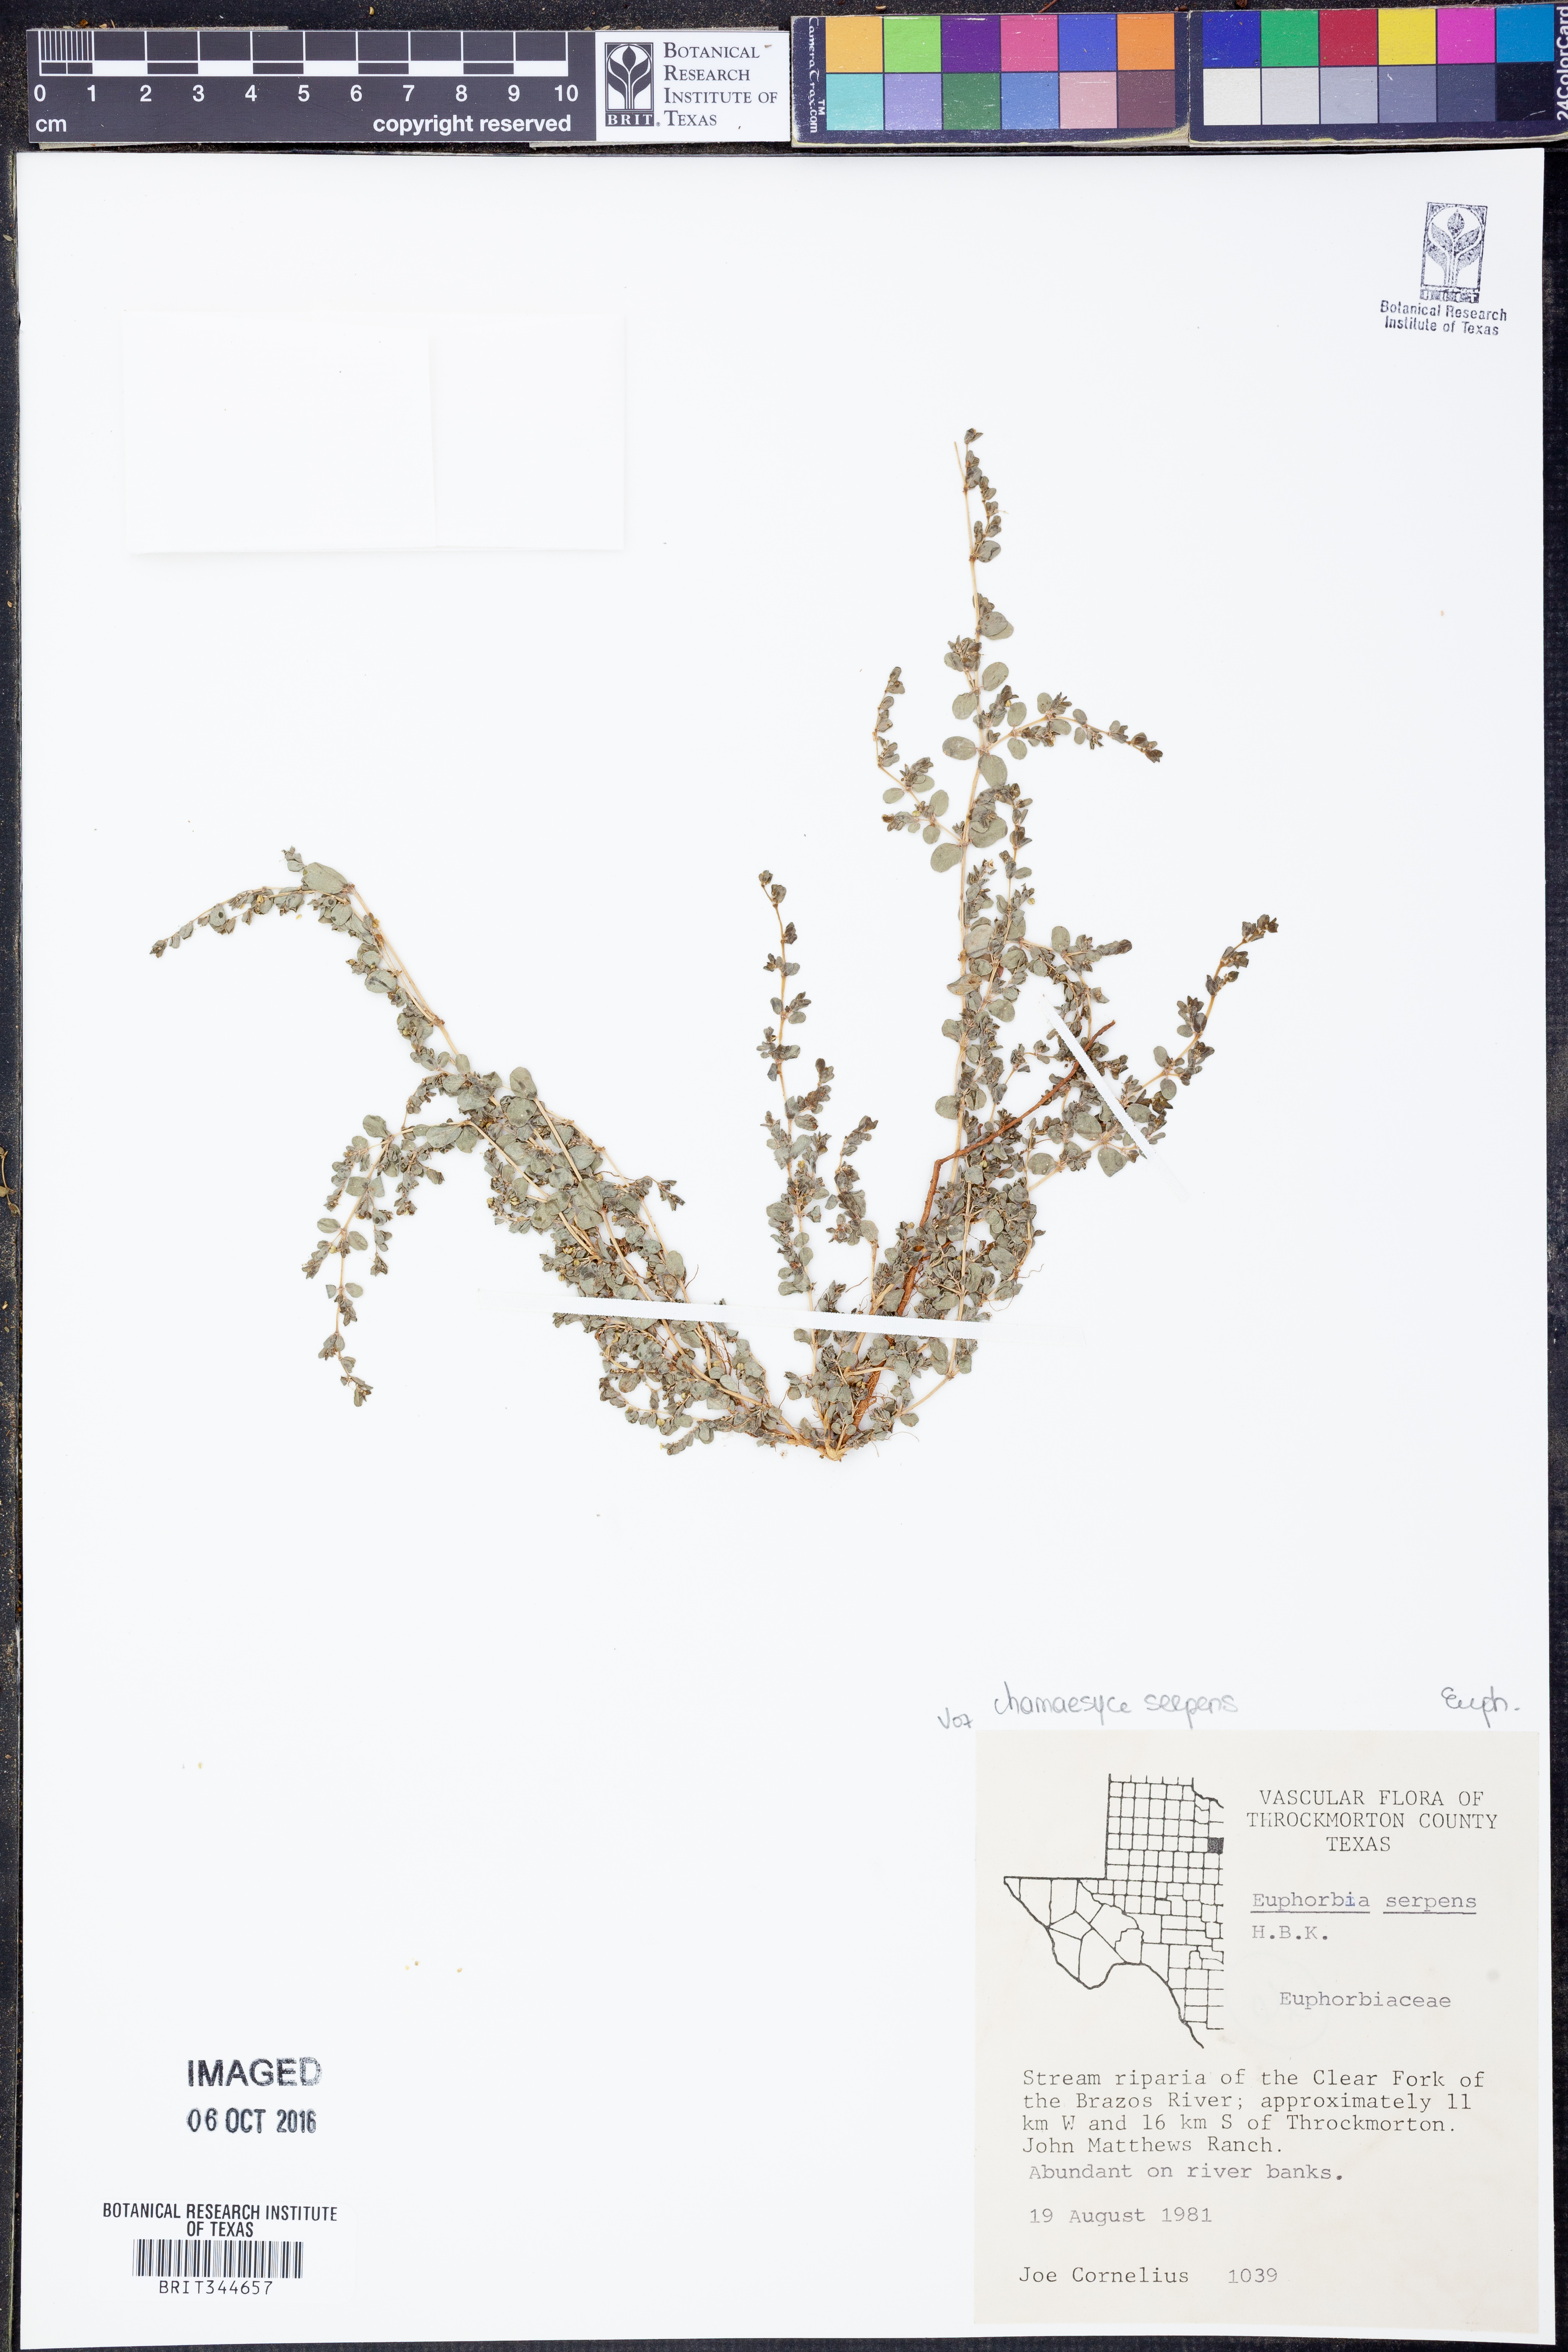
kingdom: Plantae
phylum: Tracheophyta
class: Magnoliopsida
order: Malpighiales
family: Euphorbiaceae
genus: Euphorbia
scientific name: Euphorbia serpens
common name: Matted sandmat
